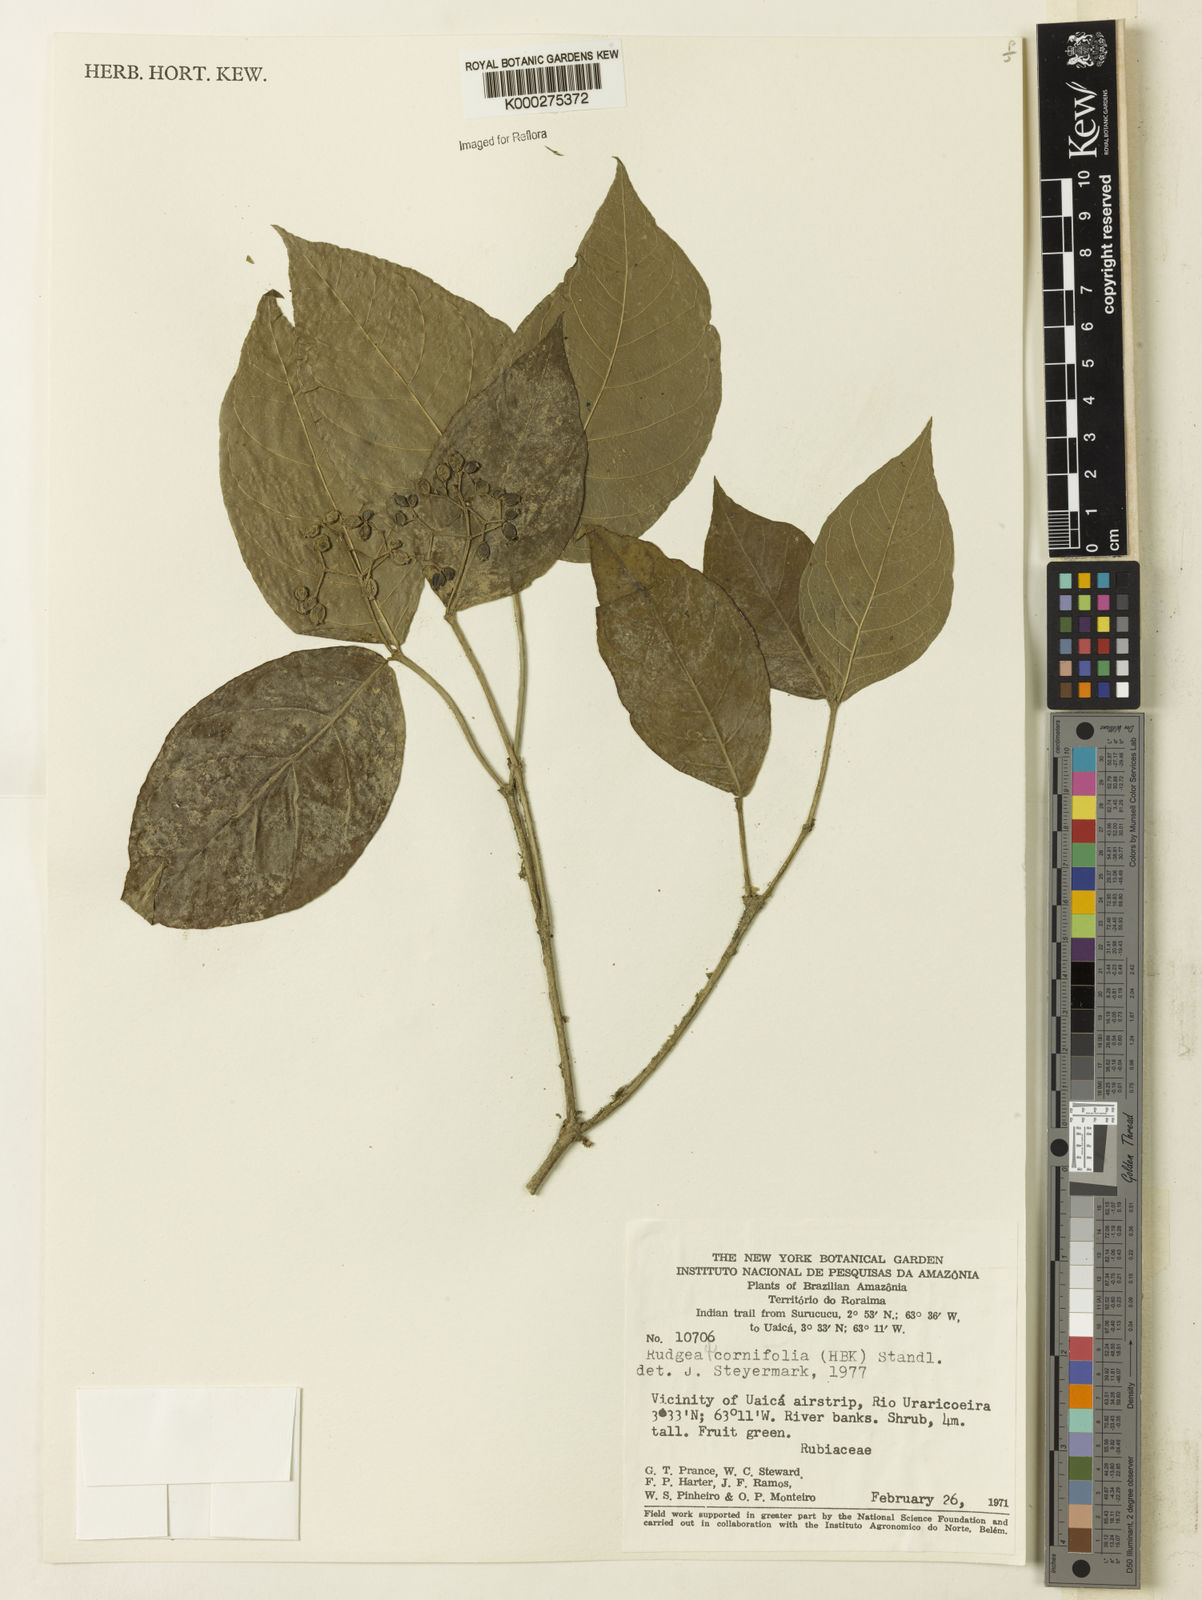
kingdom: Plantae
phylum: Tracheophyta
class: Magnoliopsida
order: Gentianales
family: Rubiaceae
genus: Rudgea
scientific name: Rudgea cornifolia
